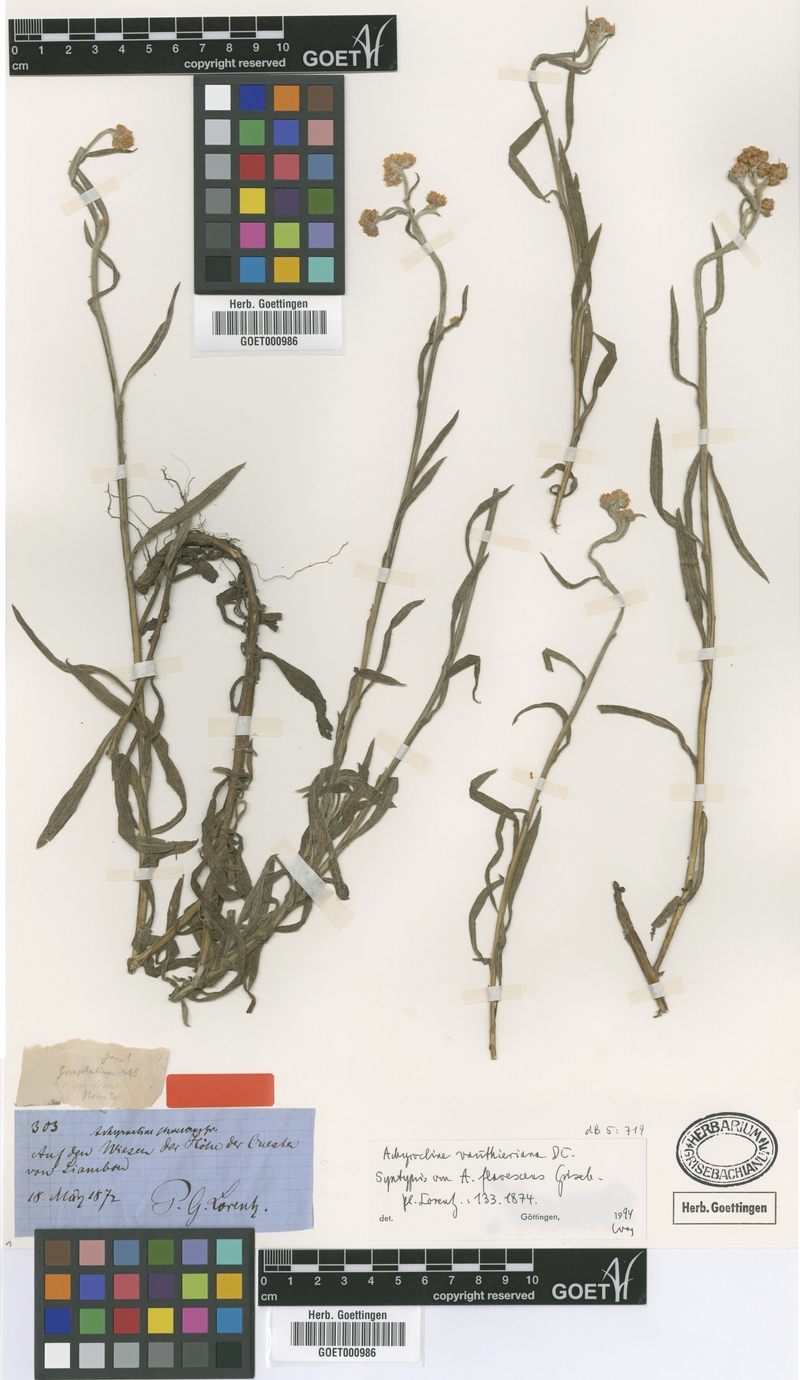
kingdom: Plantae
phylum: Tracheophyta
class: Magnoliopsida
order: Asterales
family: Asteraceae
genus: Achyrocline
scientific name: Achyrocline vauthieriana
